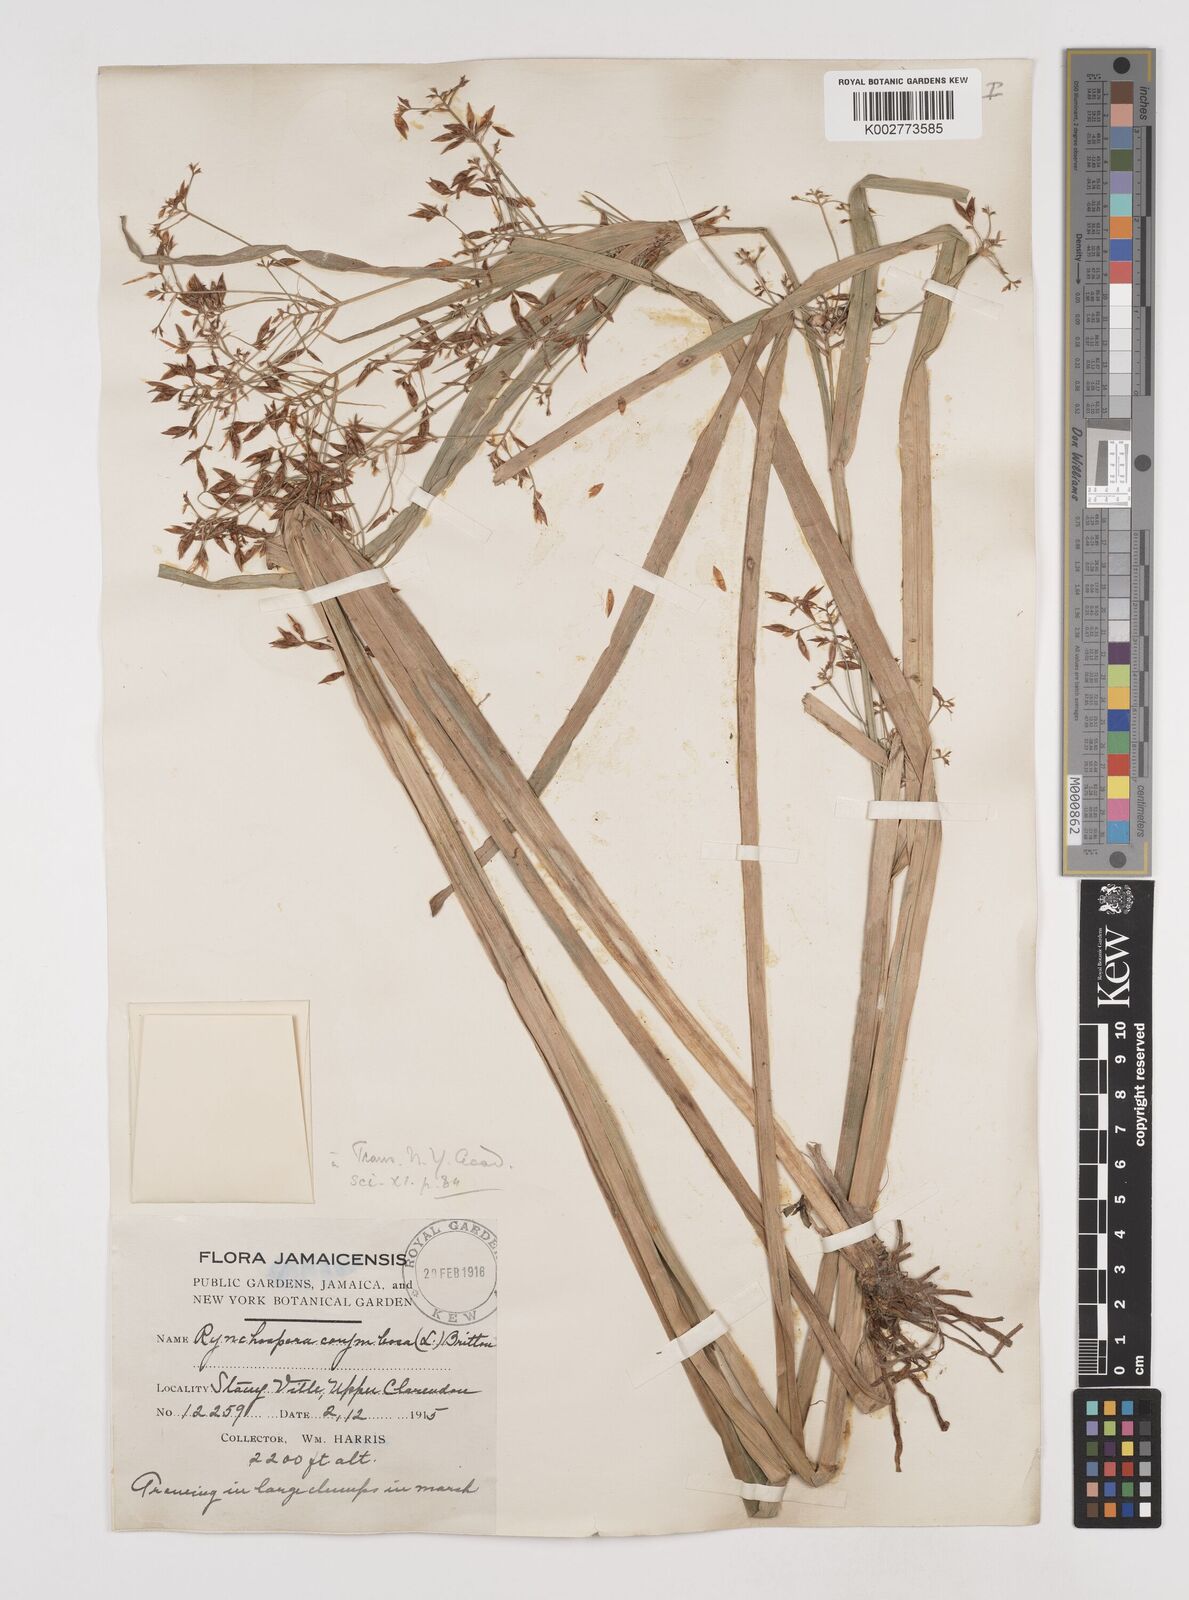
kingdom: Plantae
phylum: Tracheophyta
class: Liliopsida
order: Poales
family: Cyperaceae
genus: Rhynchospora
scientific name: Rhynchospora corymbosa
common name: Golden beak sedge
